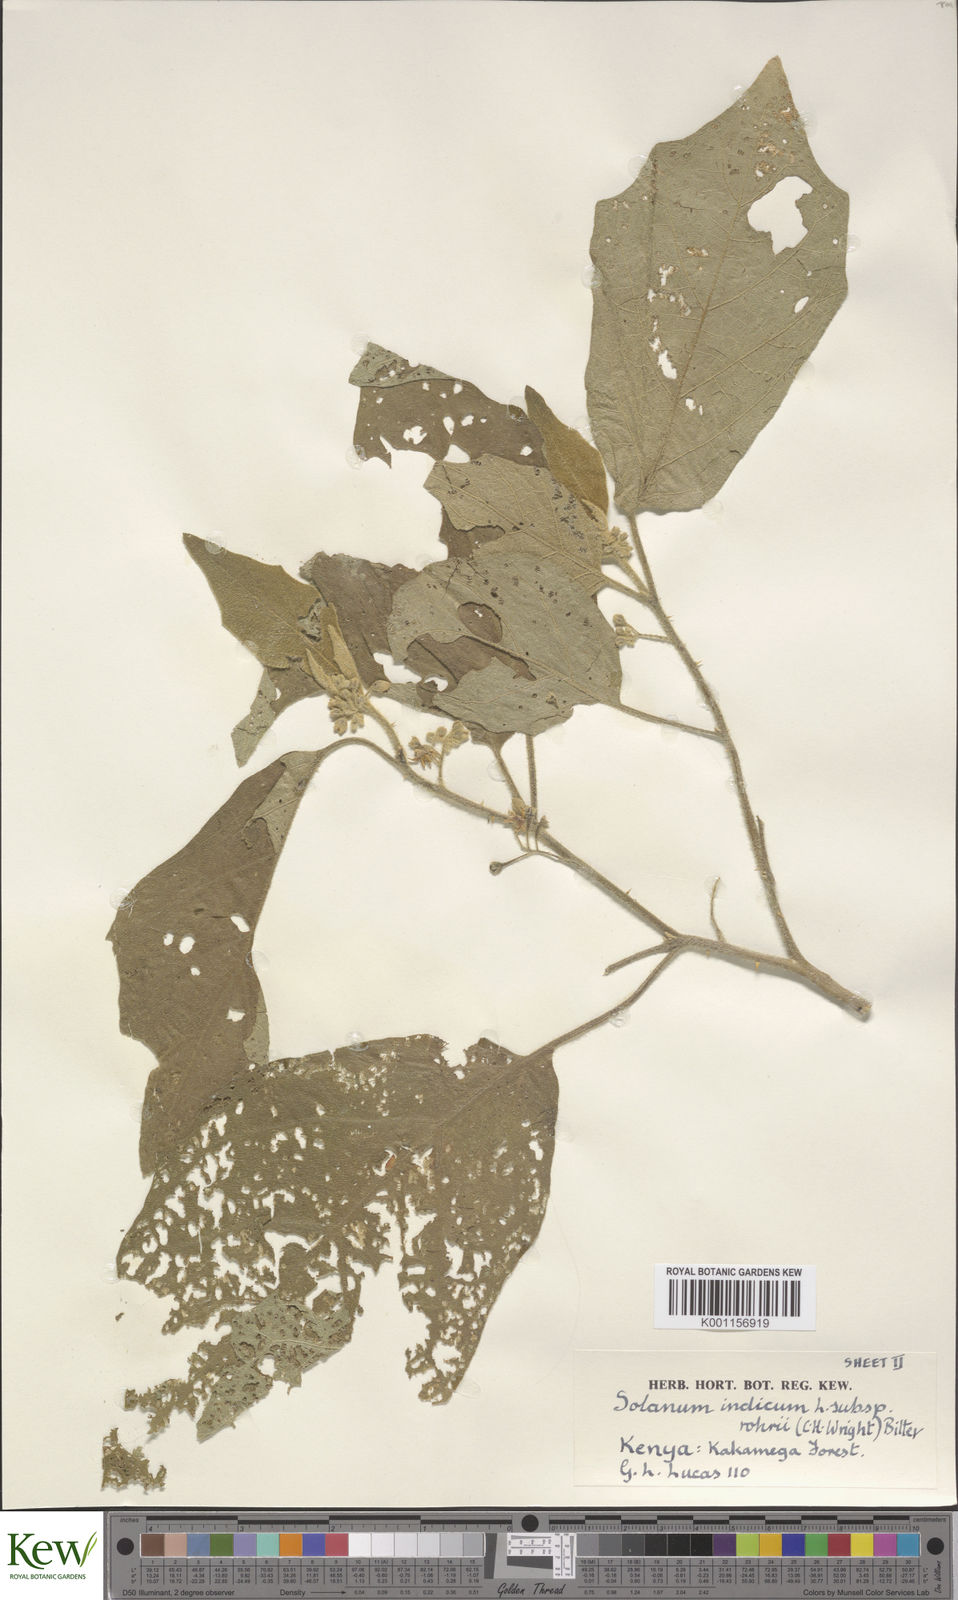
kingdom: Plantae
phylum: Tracheophyta
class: Magnoliopsida
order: Solanales
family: Solanaceae
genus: Solanum
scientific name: Solanum anguivi
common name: Forest bitterberry
